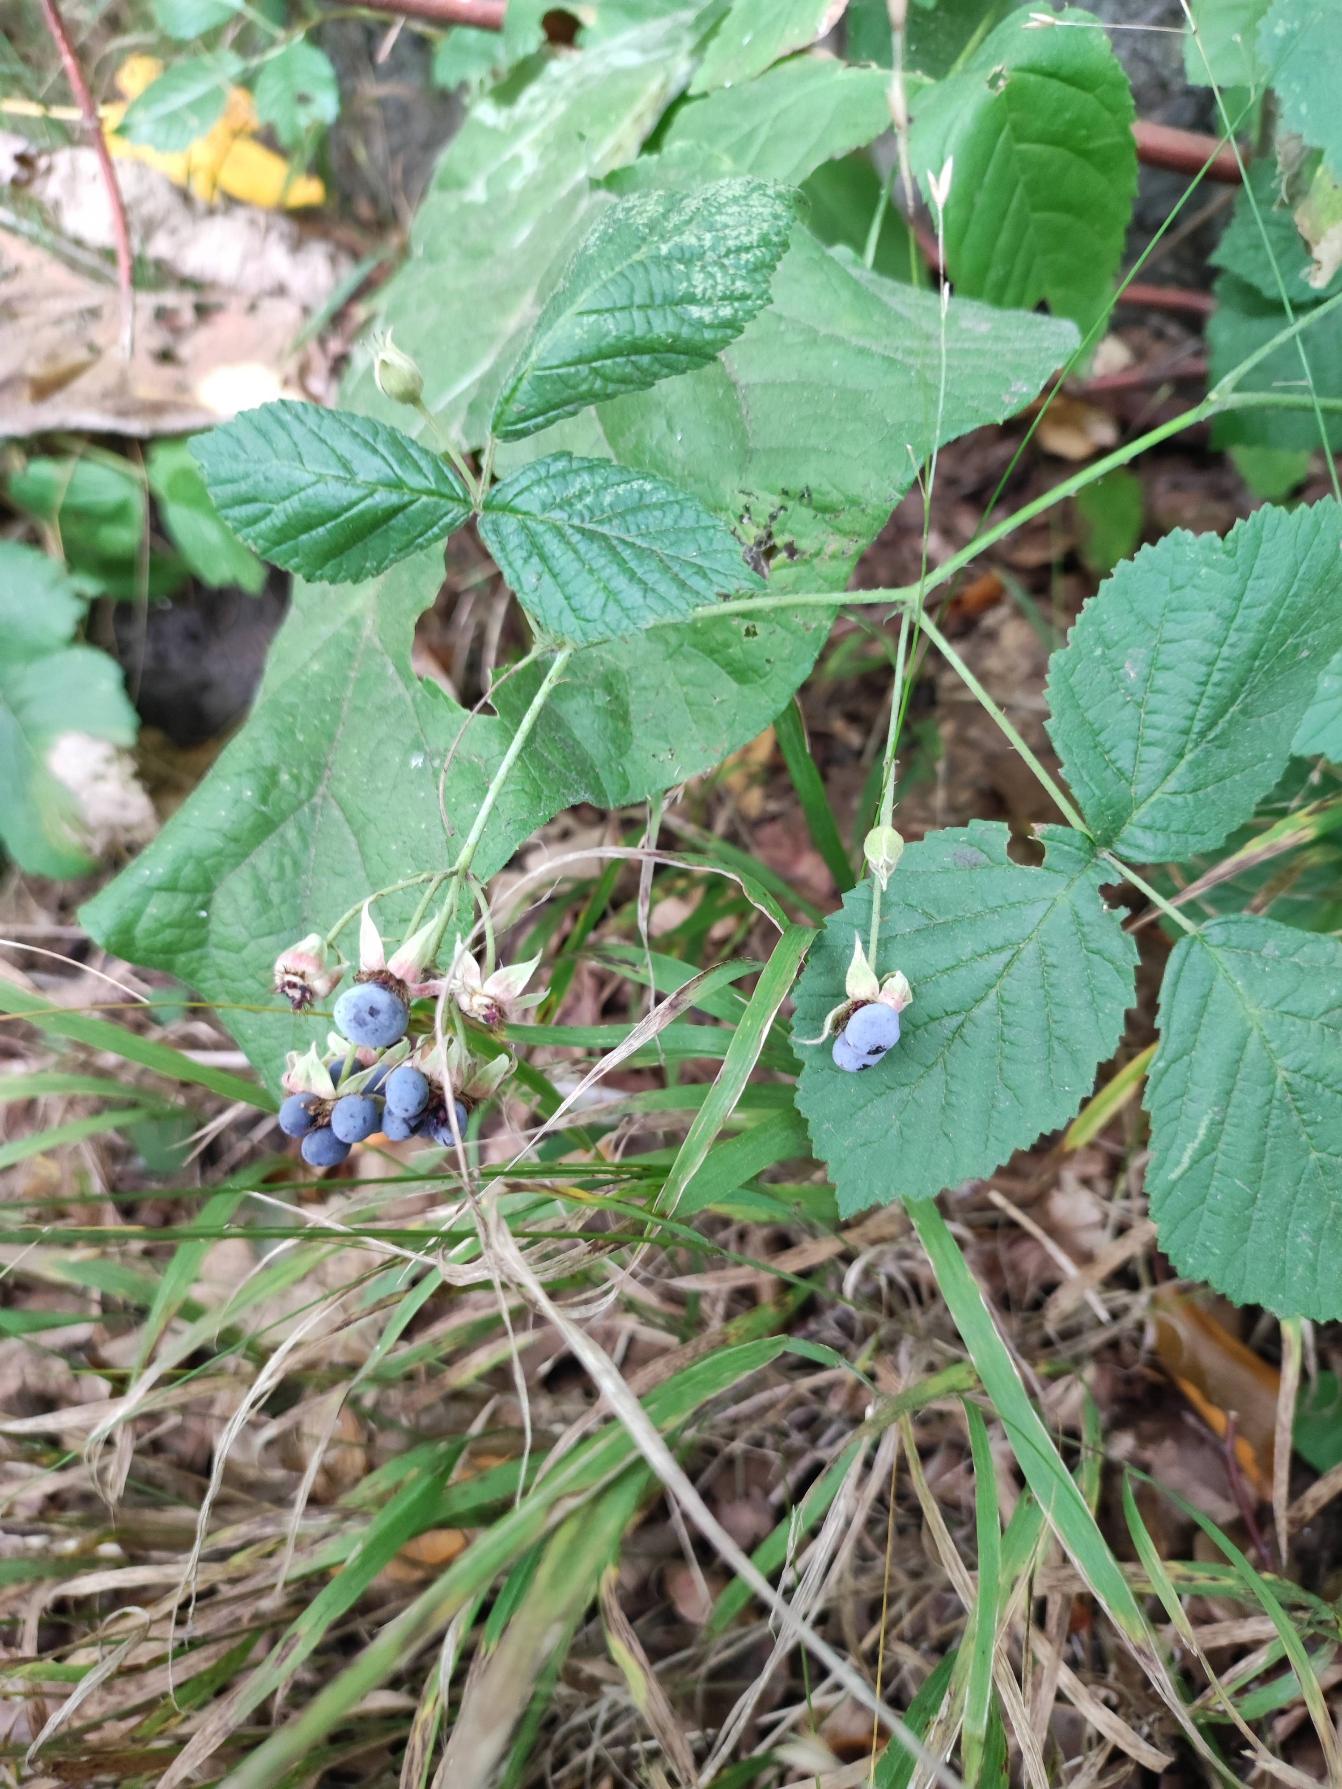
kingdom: Plantae
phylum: Tracheophyta
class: Magnoliopsida
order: Rosales
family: Rosaceae
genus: Rubus
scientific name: Rubus caesius
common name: Korbær
